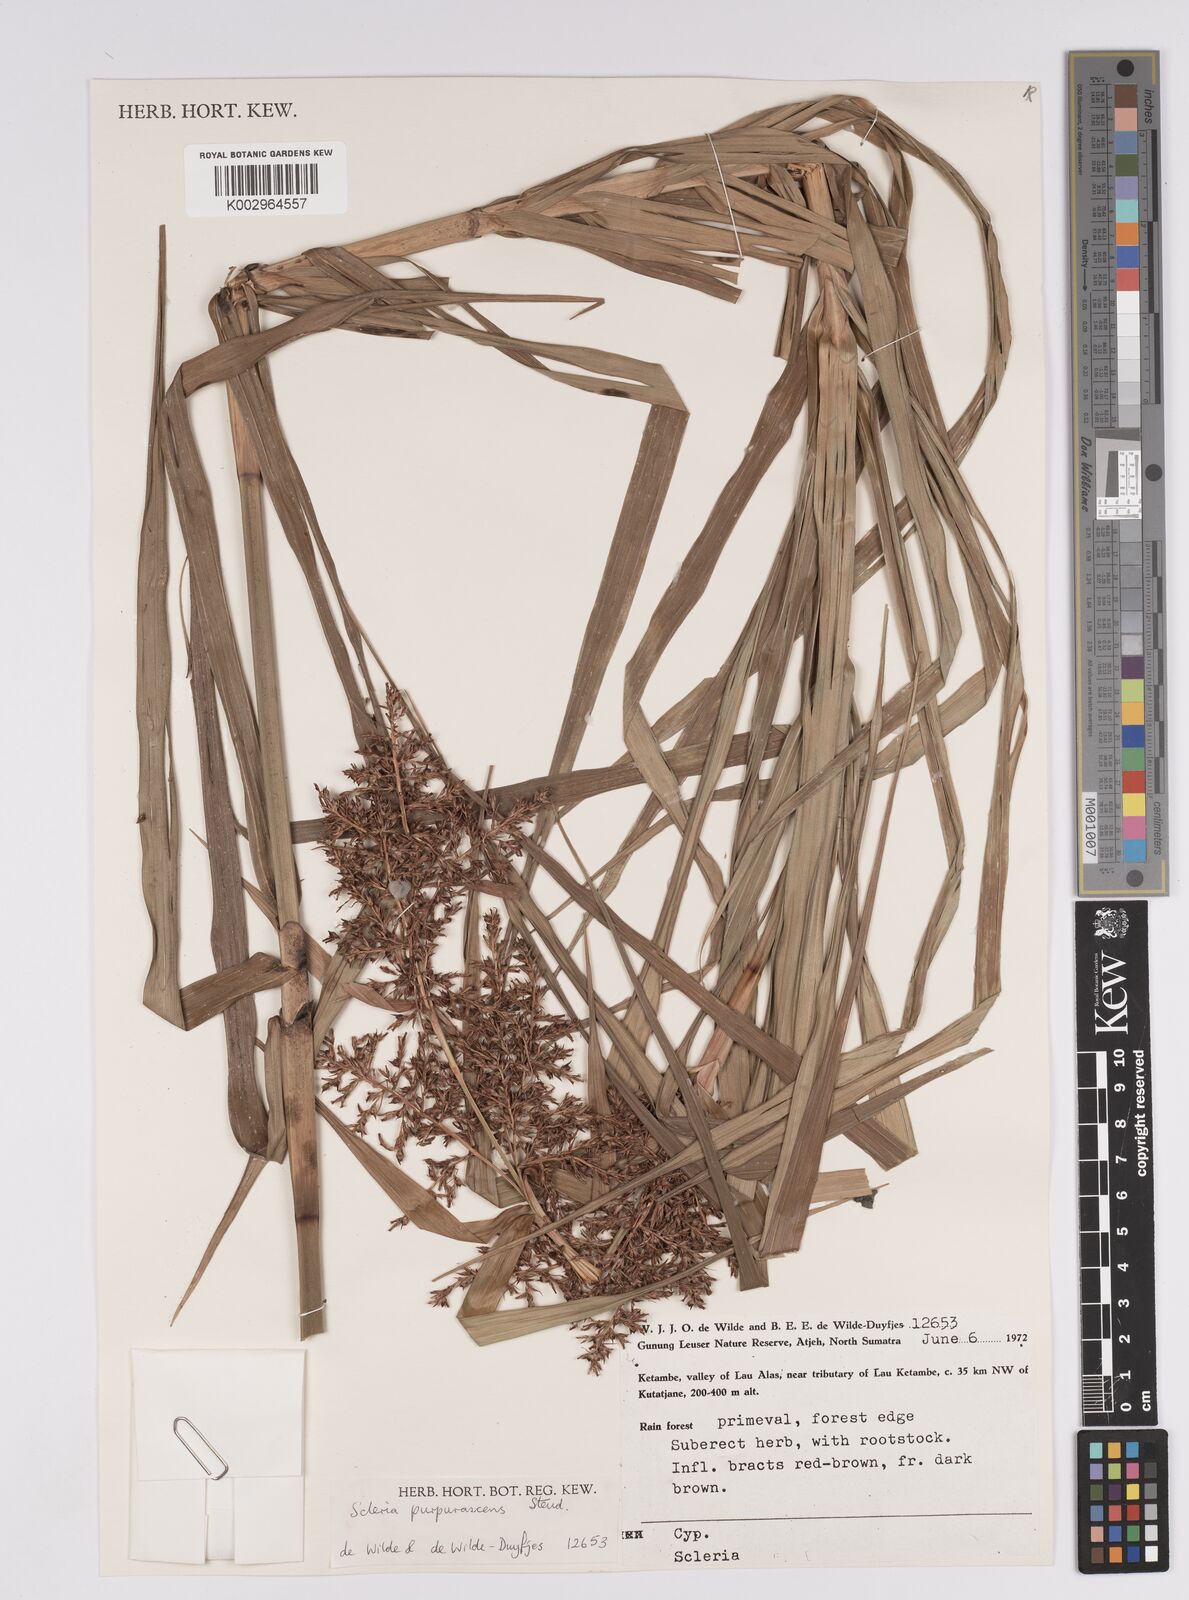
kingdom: Plantae
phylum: Tracheophyta
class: Liliopsida
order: Poales
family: Cyperaceae
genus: Scleria
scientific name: Scleria purpurascens
